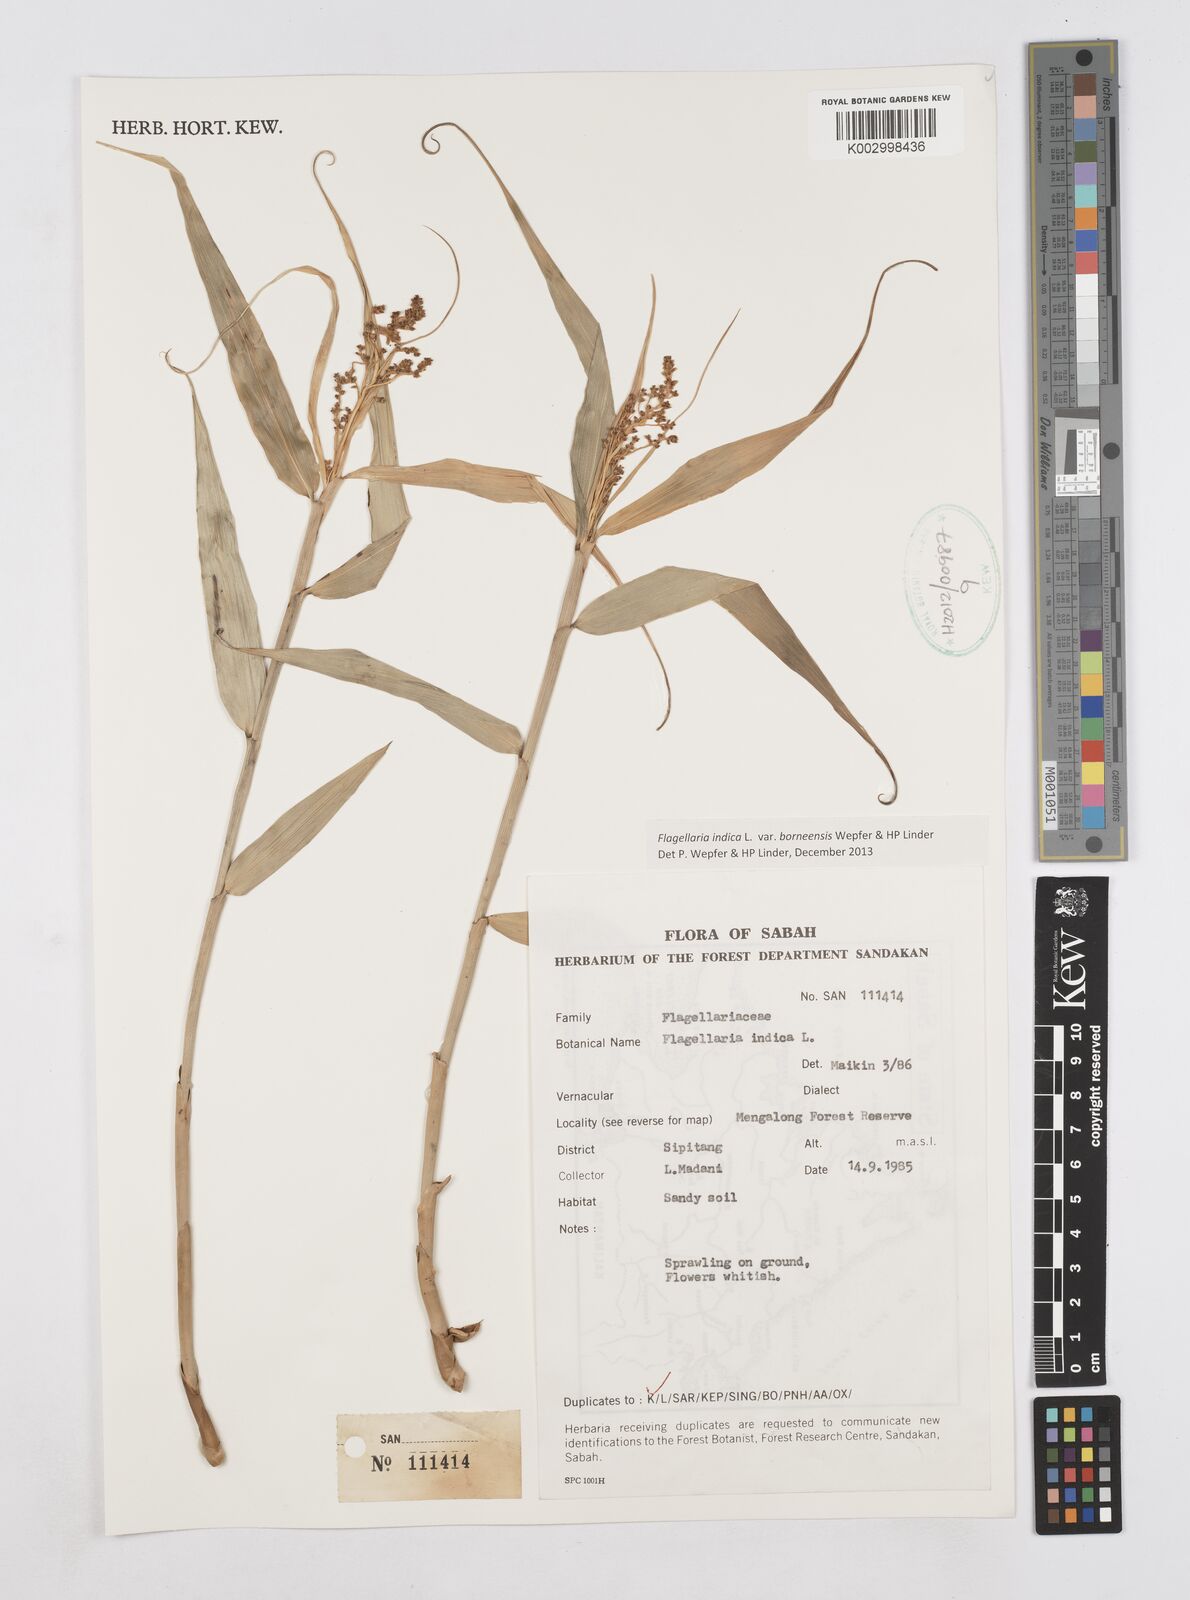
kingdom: Plantae
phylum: Tracheophyta
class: Liliopsida
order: Poales
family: Flagellariaceae
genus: Flagellaria
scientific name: Flagellaria indica
